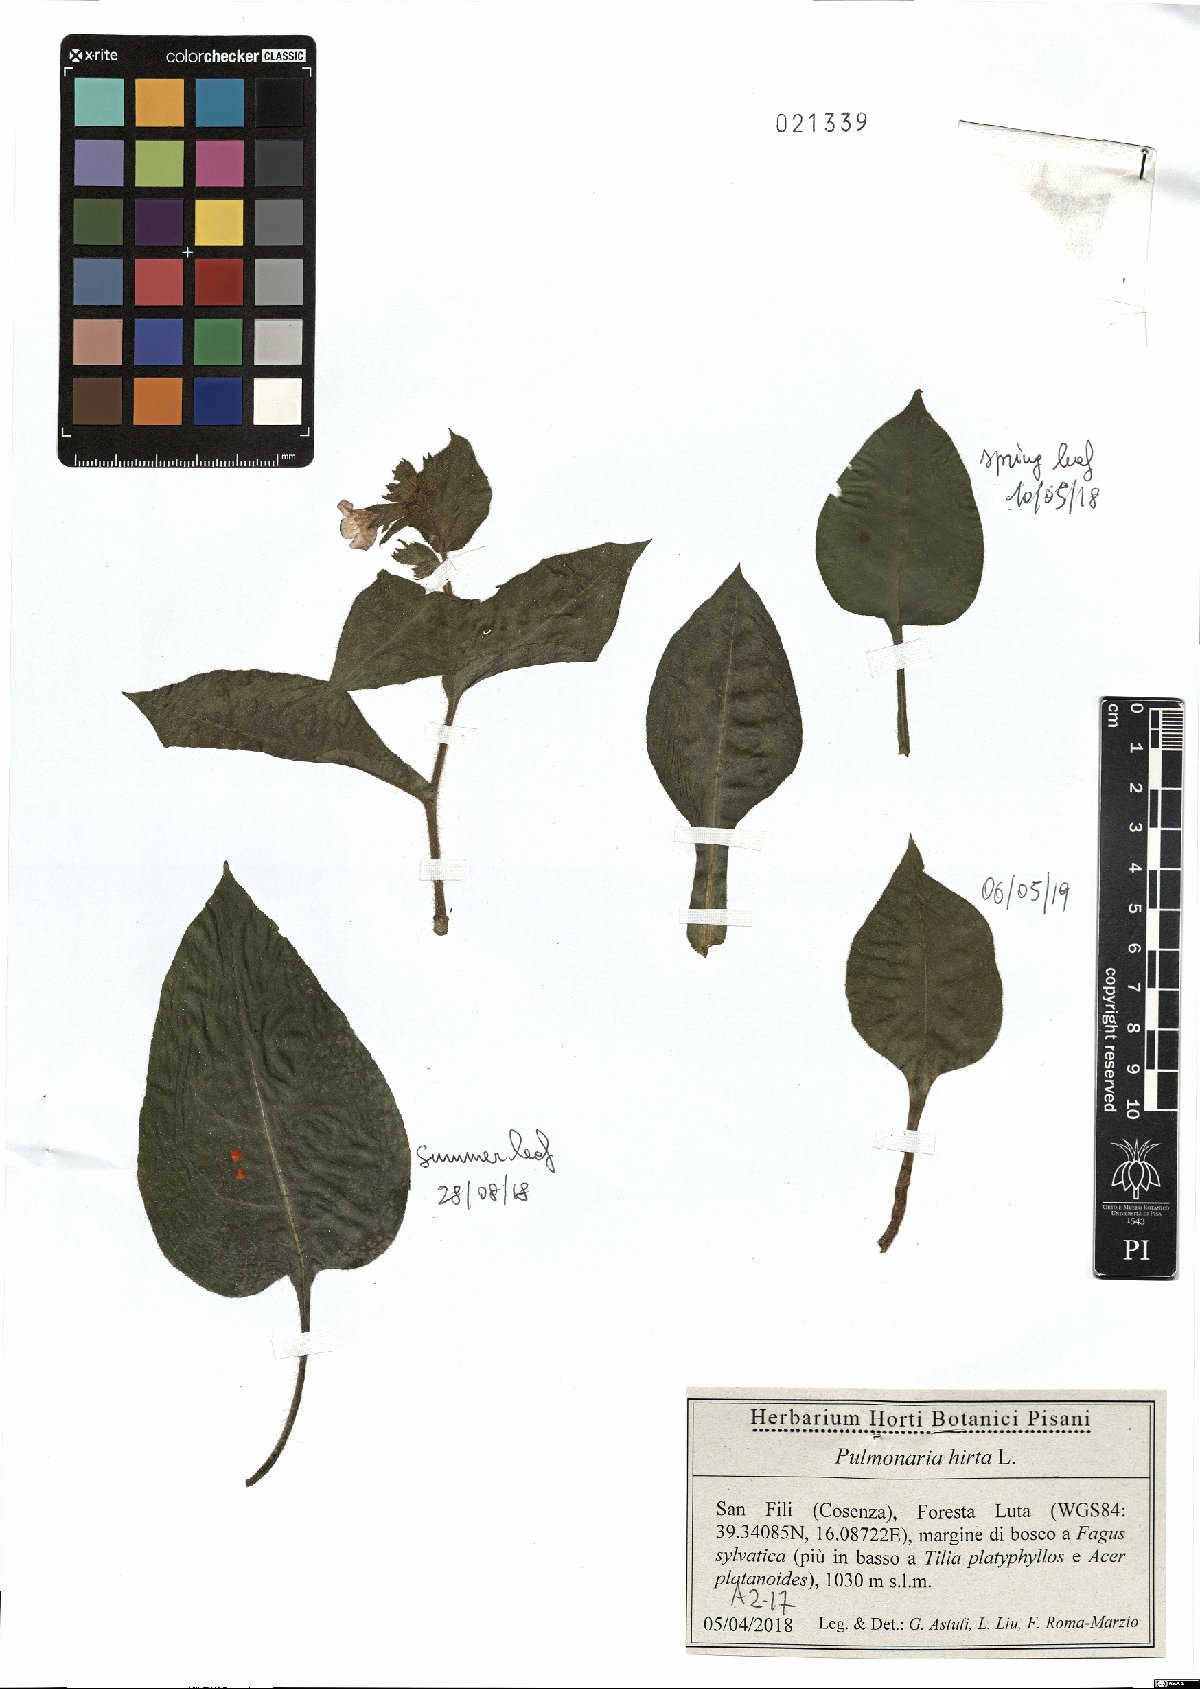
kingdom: Plantae
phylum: Tracheophyta
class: Magnoliopsida
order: Boraginales
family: Boraginaceae
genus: Pulmonaria
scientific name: Pulmonaria hirta
